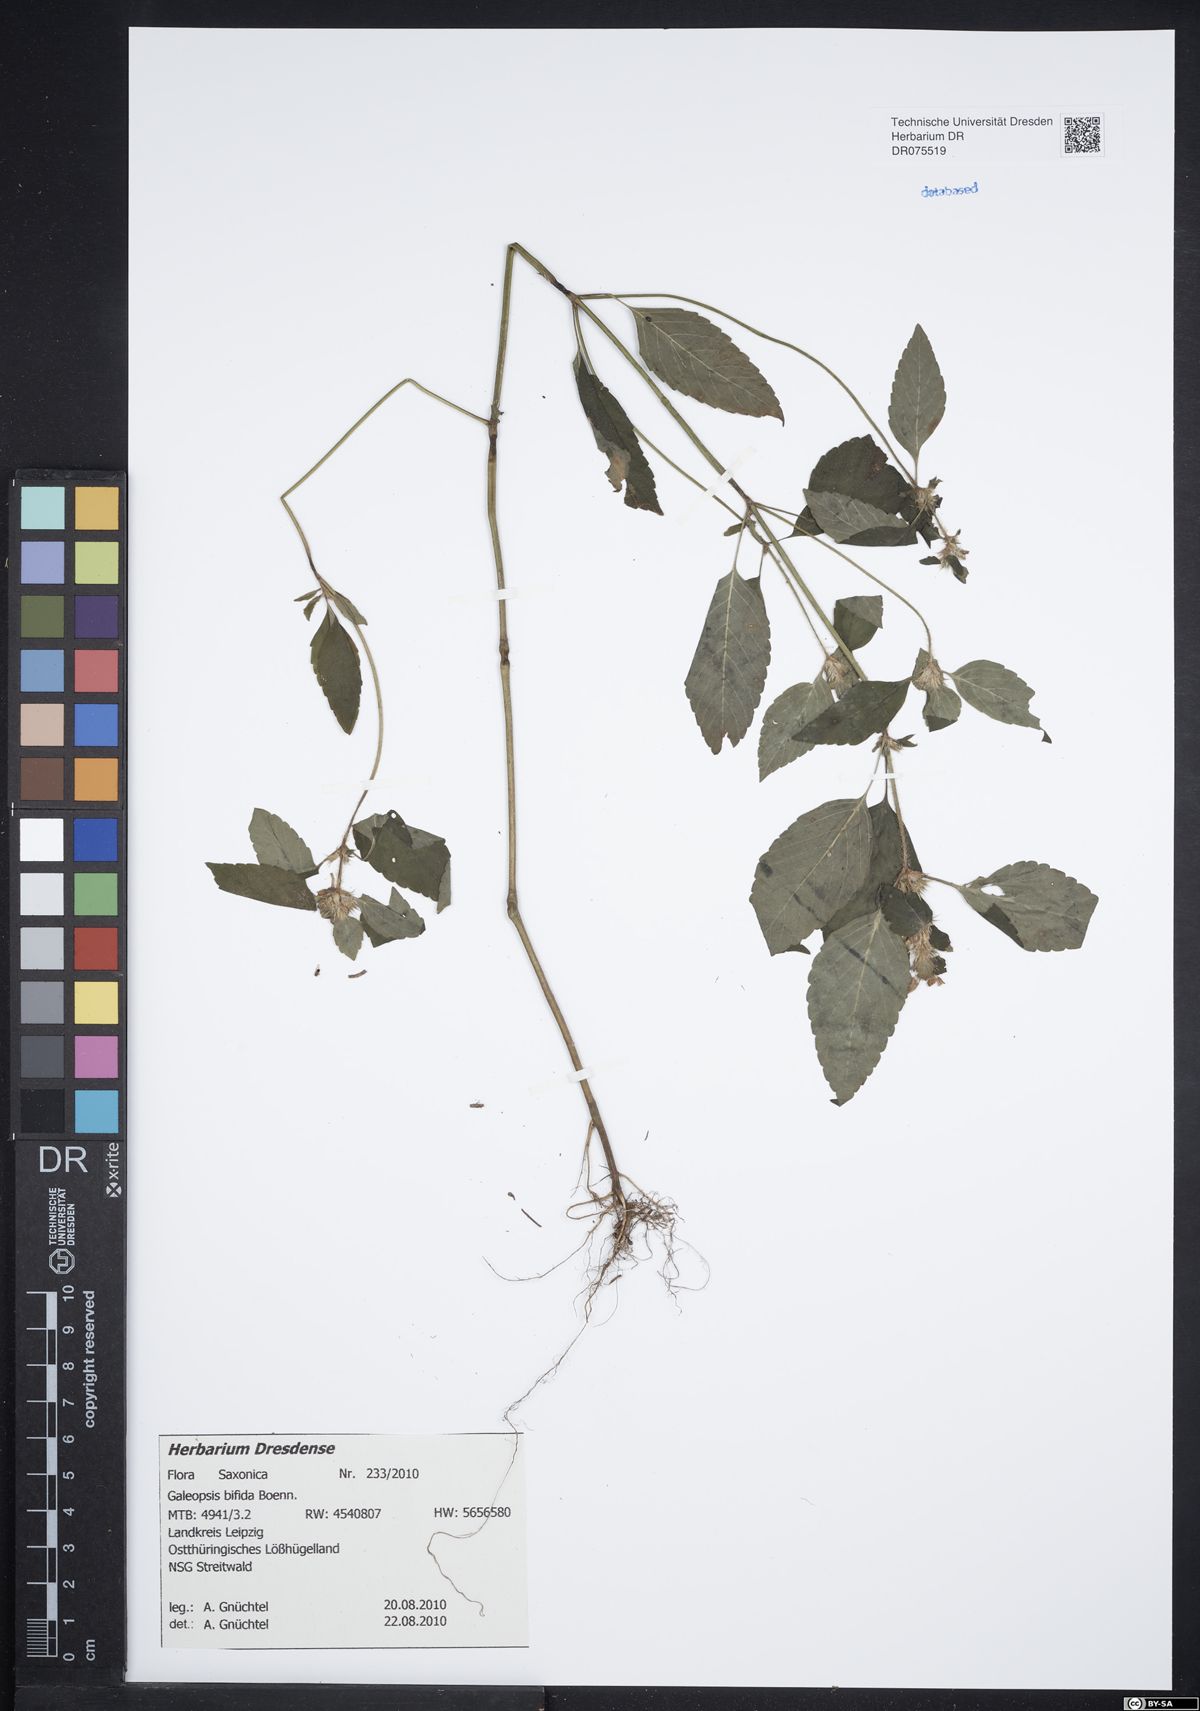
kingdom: Plantae
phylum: Tracheophyta
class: Magnoliopsida
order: Lamiales
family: Lamiaceae
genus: Galeopsis
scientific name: Galeopsis bifida
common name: Bifid hemp-nettle
